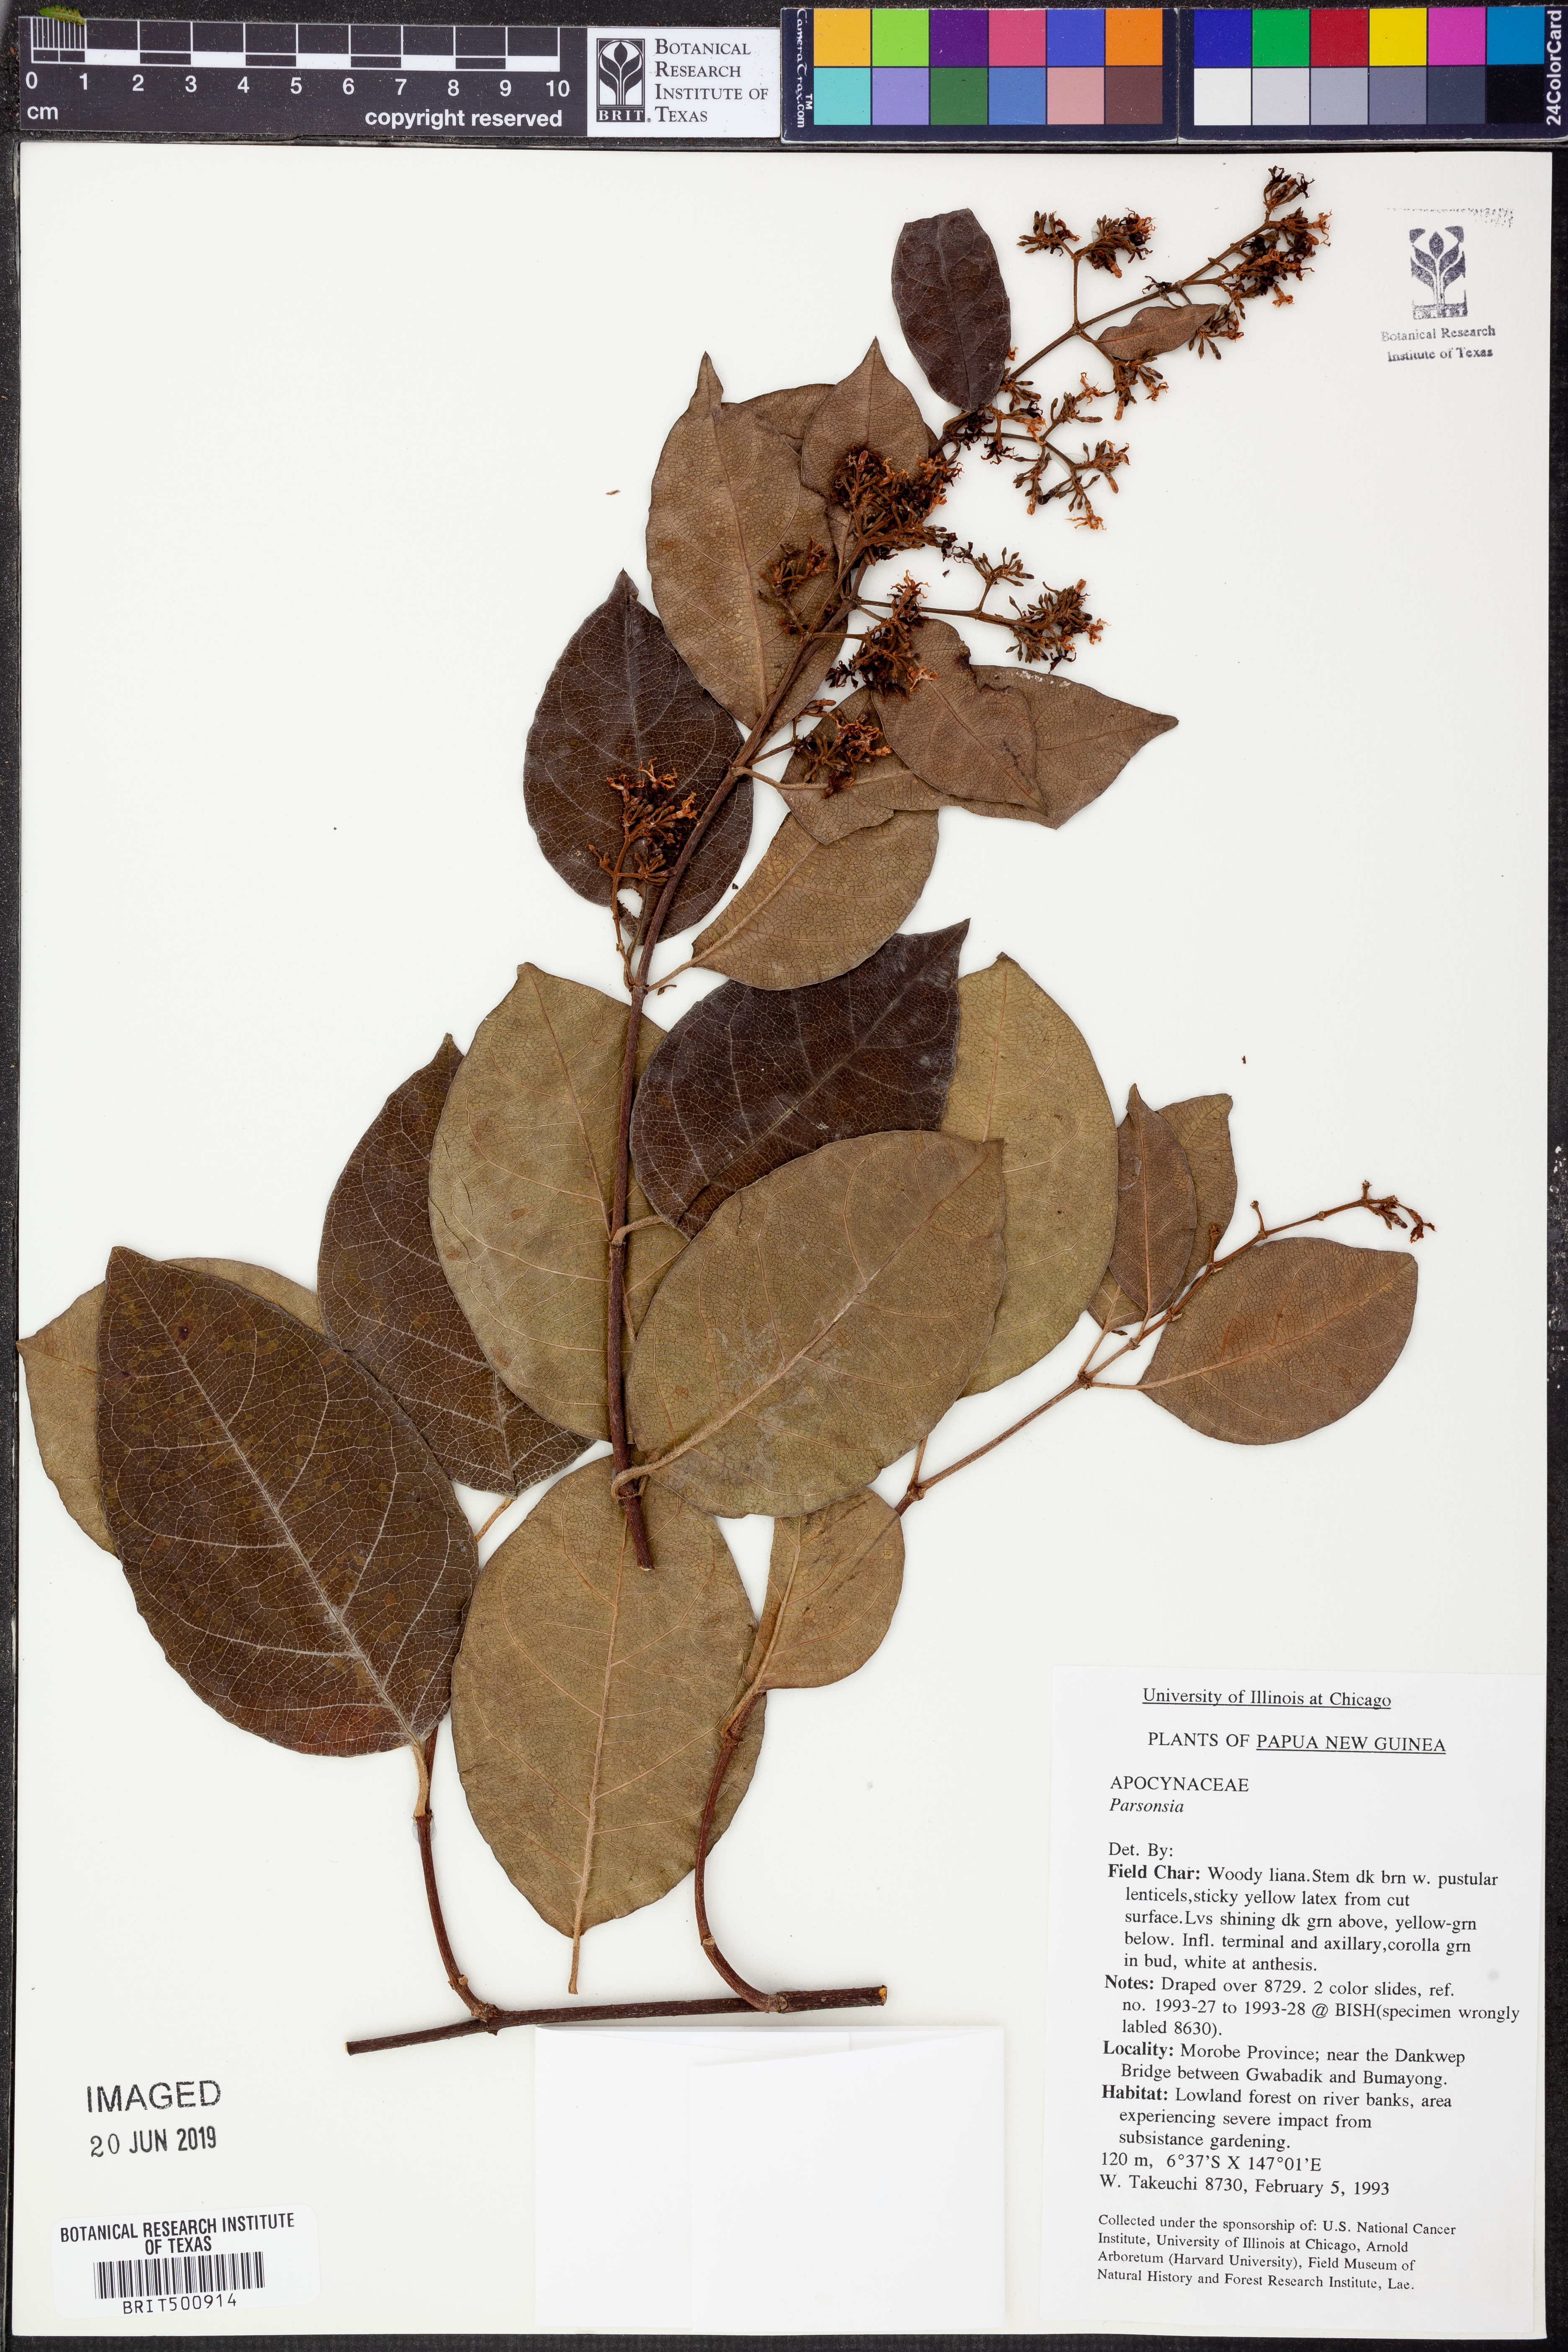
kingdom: Plantae
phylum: Tracheophyta
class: Magnoliopsida
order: Gentianales
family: Apocynaceae
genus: Parsonsia
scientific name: Parsonsia
